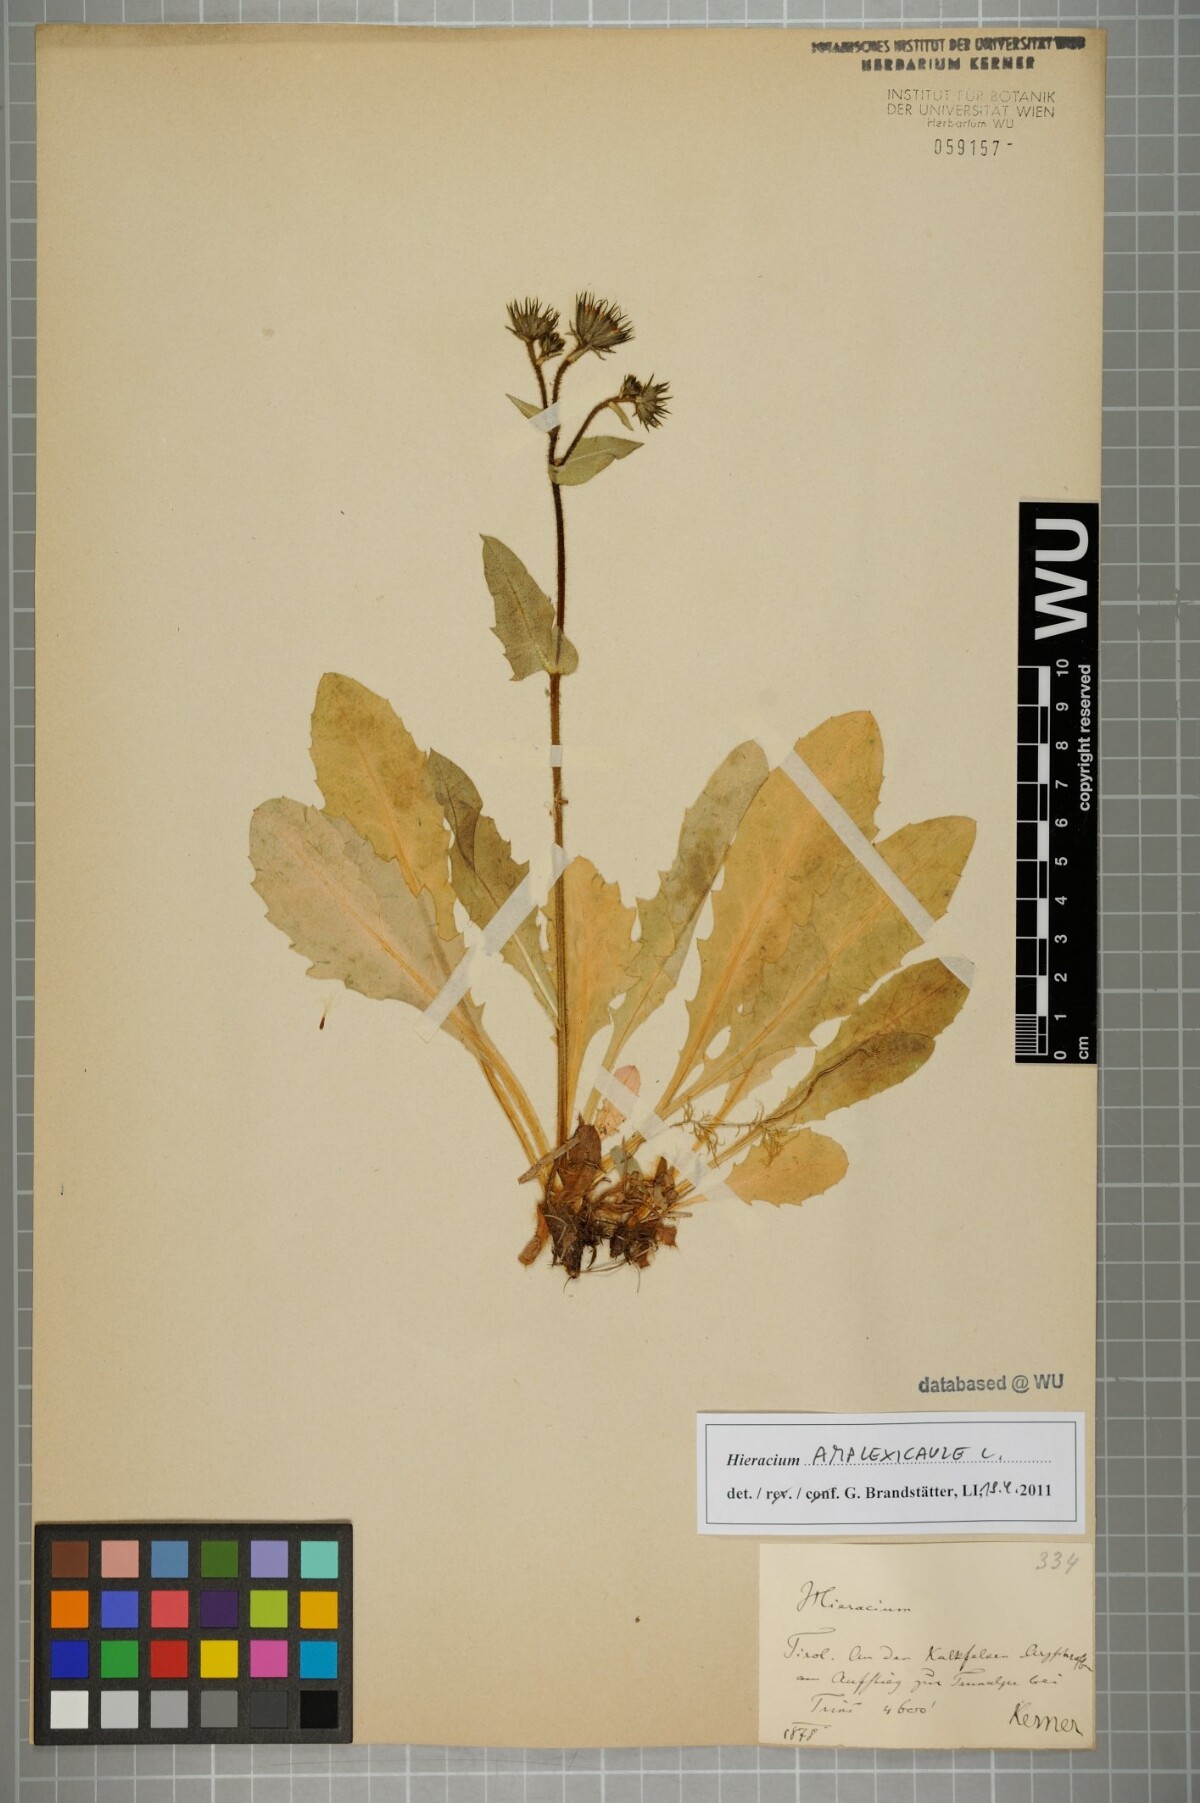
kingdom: Plantae
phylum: Tracheophyta
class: Magnoliopsida
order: Asterales
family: Asteraceae
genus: Hieracium
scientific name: Hieracium amplexicaule
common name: Sticky hawkweed
